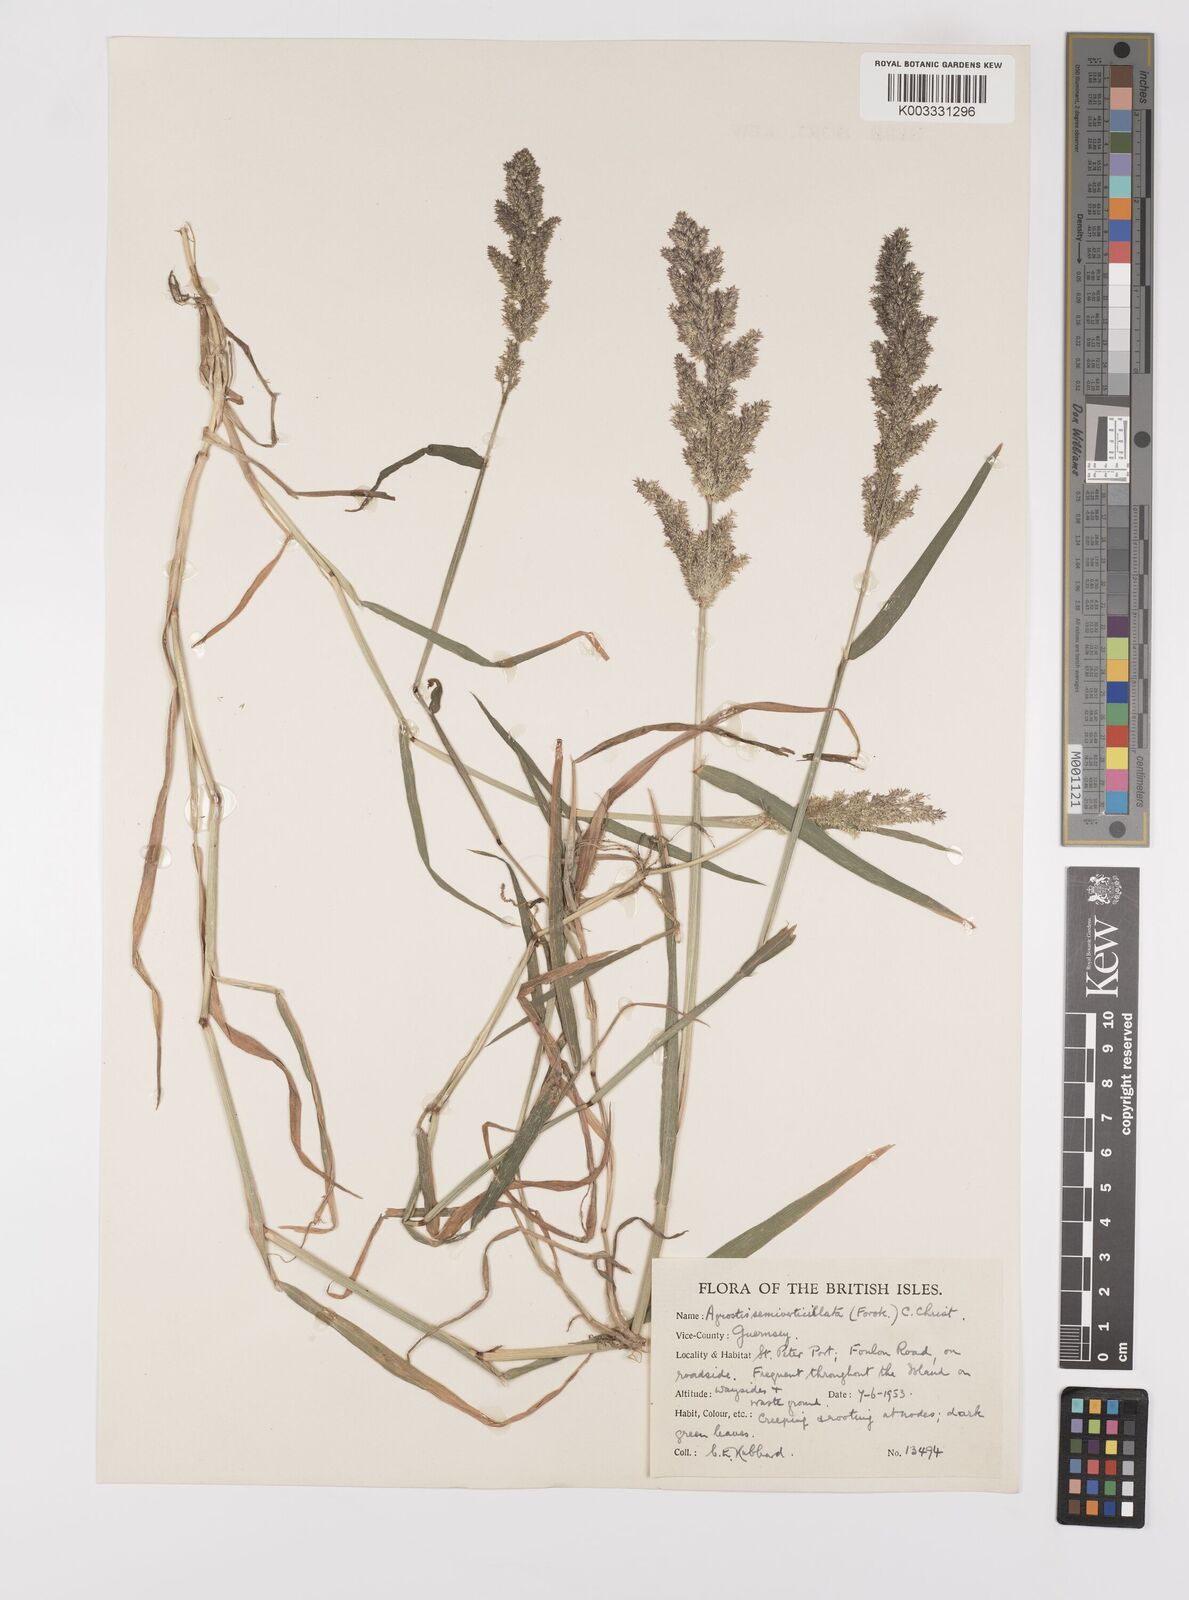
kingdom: Plantae
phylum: Tracheophyta
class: Liliopsida
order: Poales
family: Poaceae
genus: Polypogon
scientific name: Polypogon viridis
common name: Water bent
